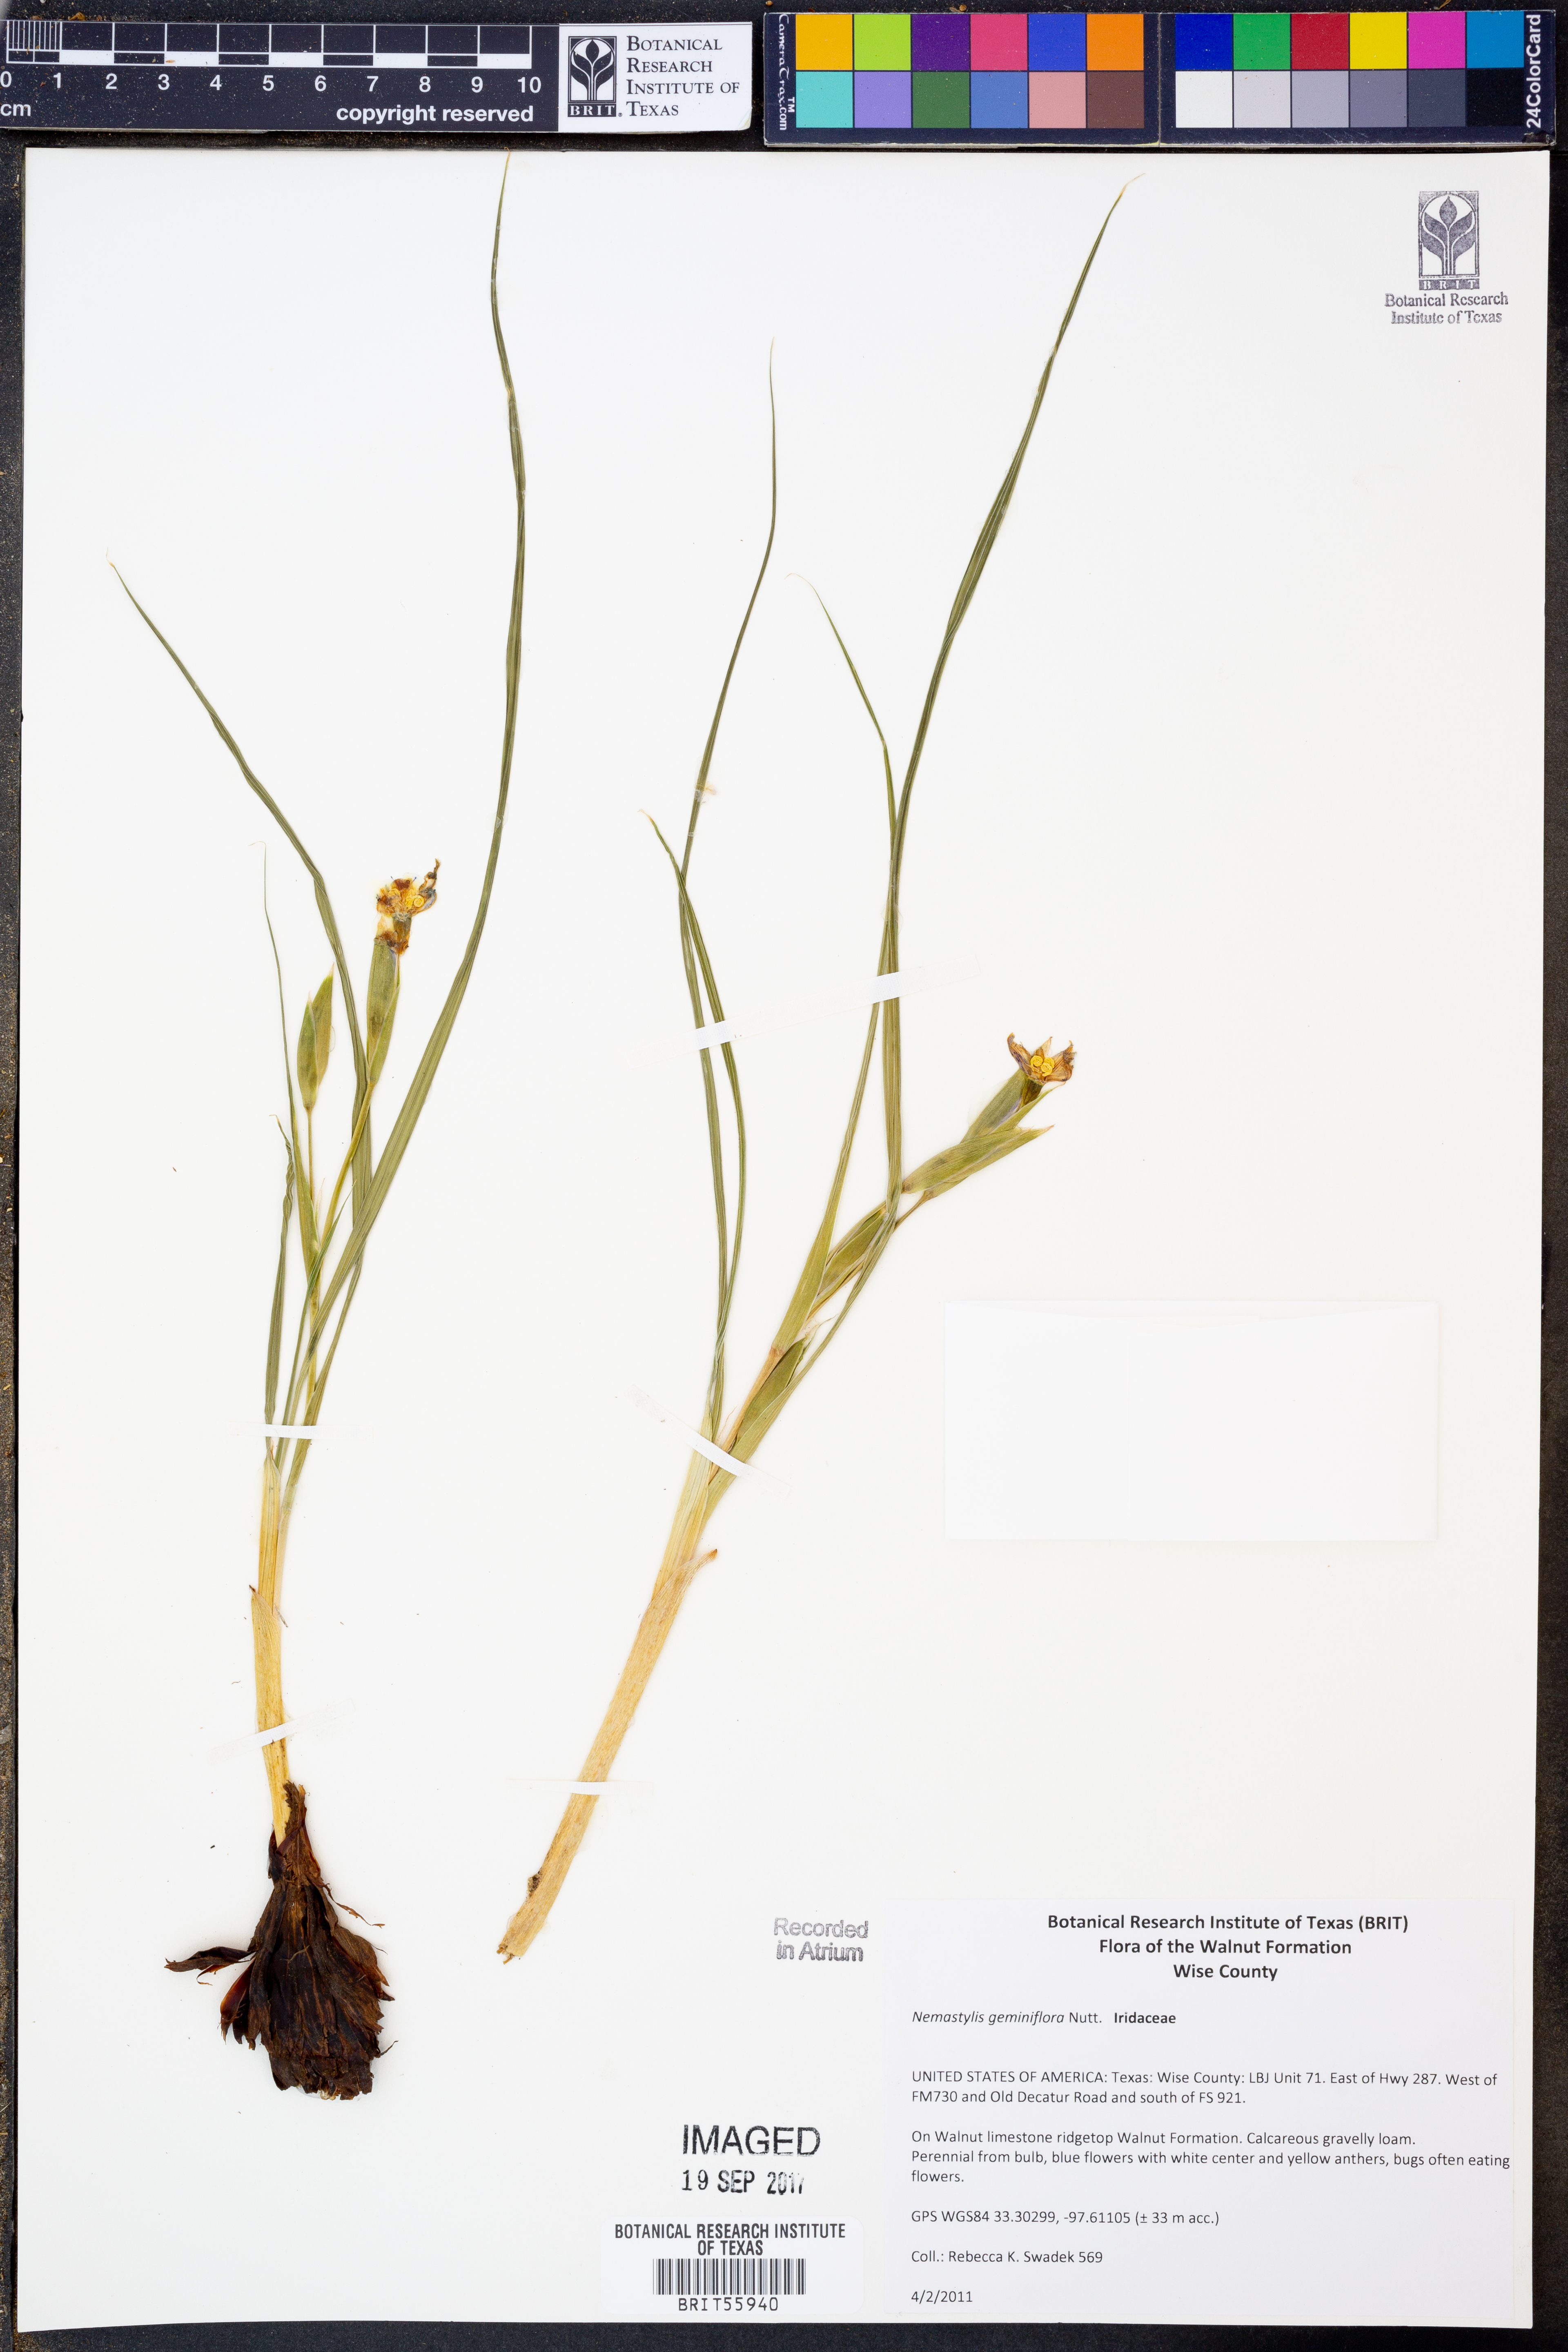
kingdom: Plantae
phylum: Tracheophyta
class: Liliopsida
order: Asparagales
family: Iridaceae
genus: Nemastylis
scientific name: Nemastylis geminiflora
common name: Prairie celestial
